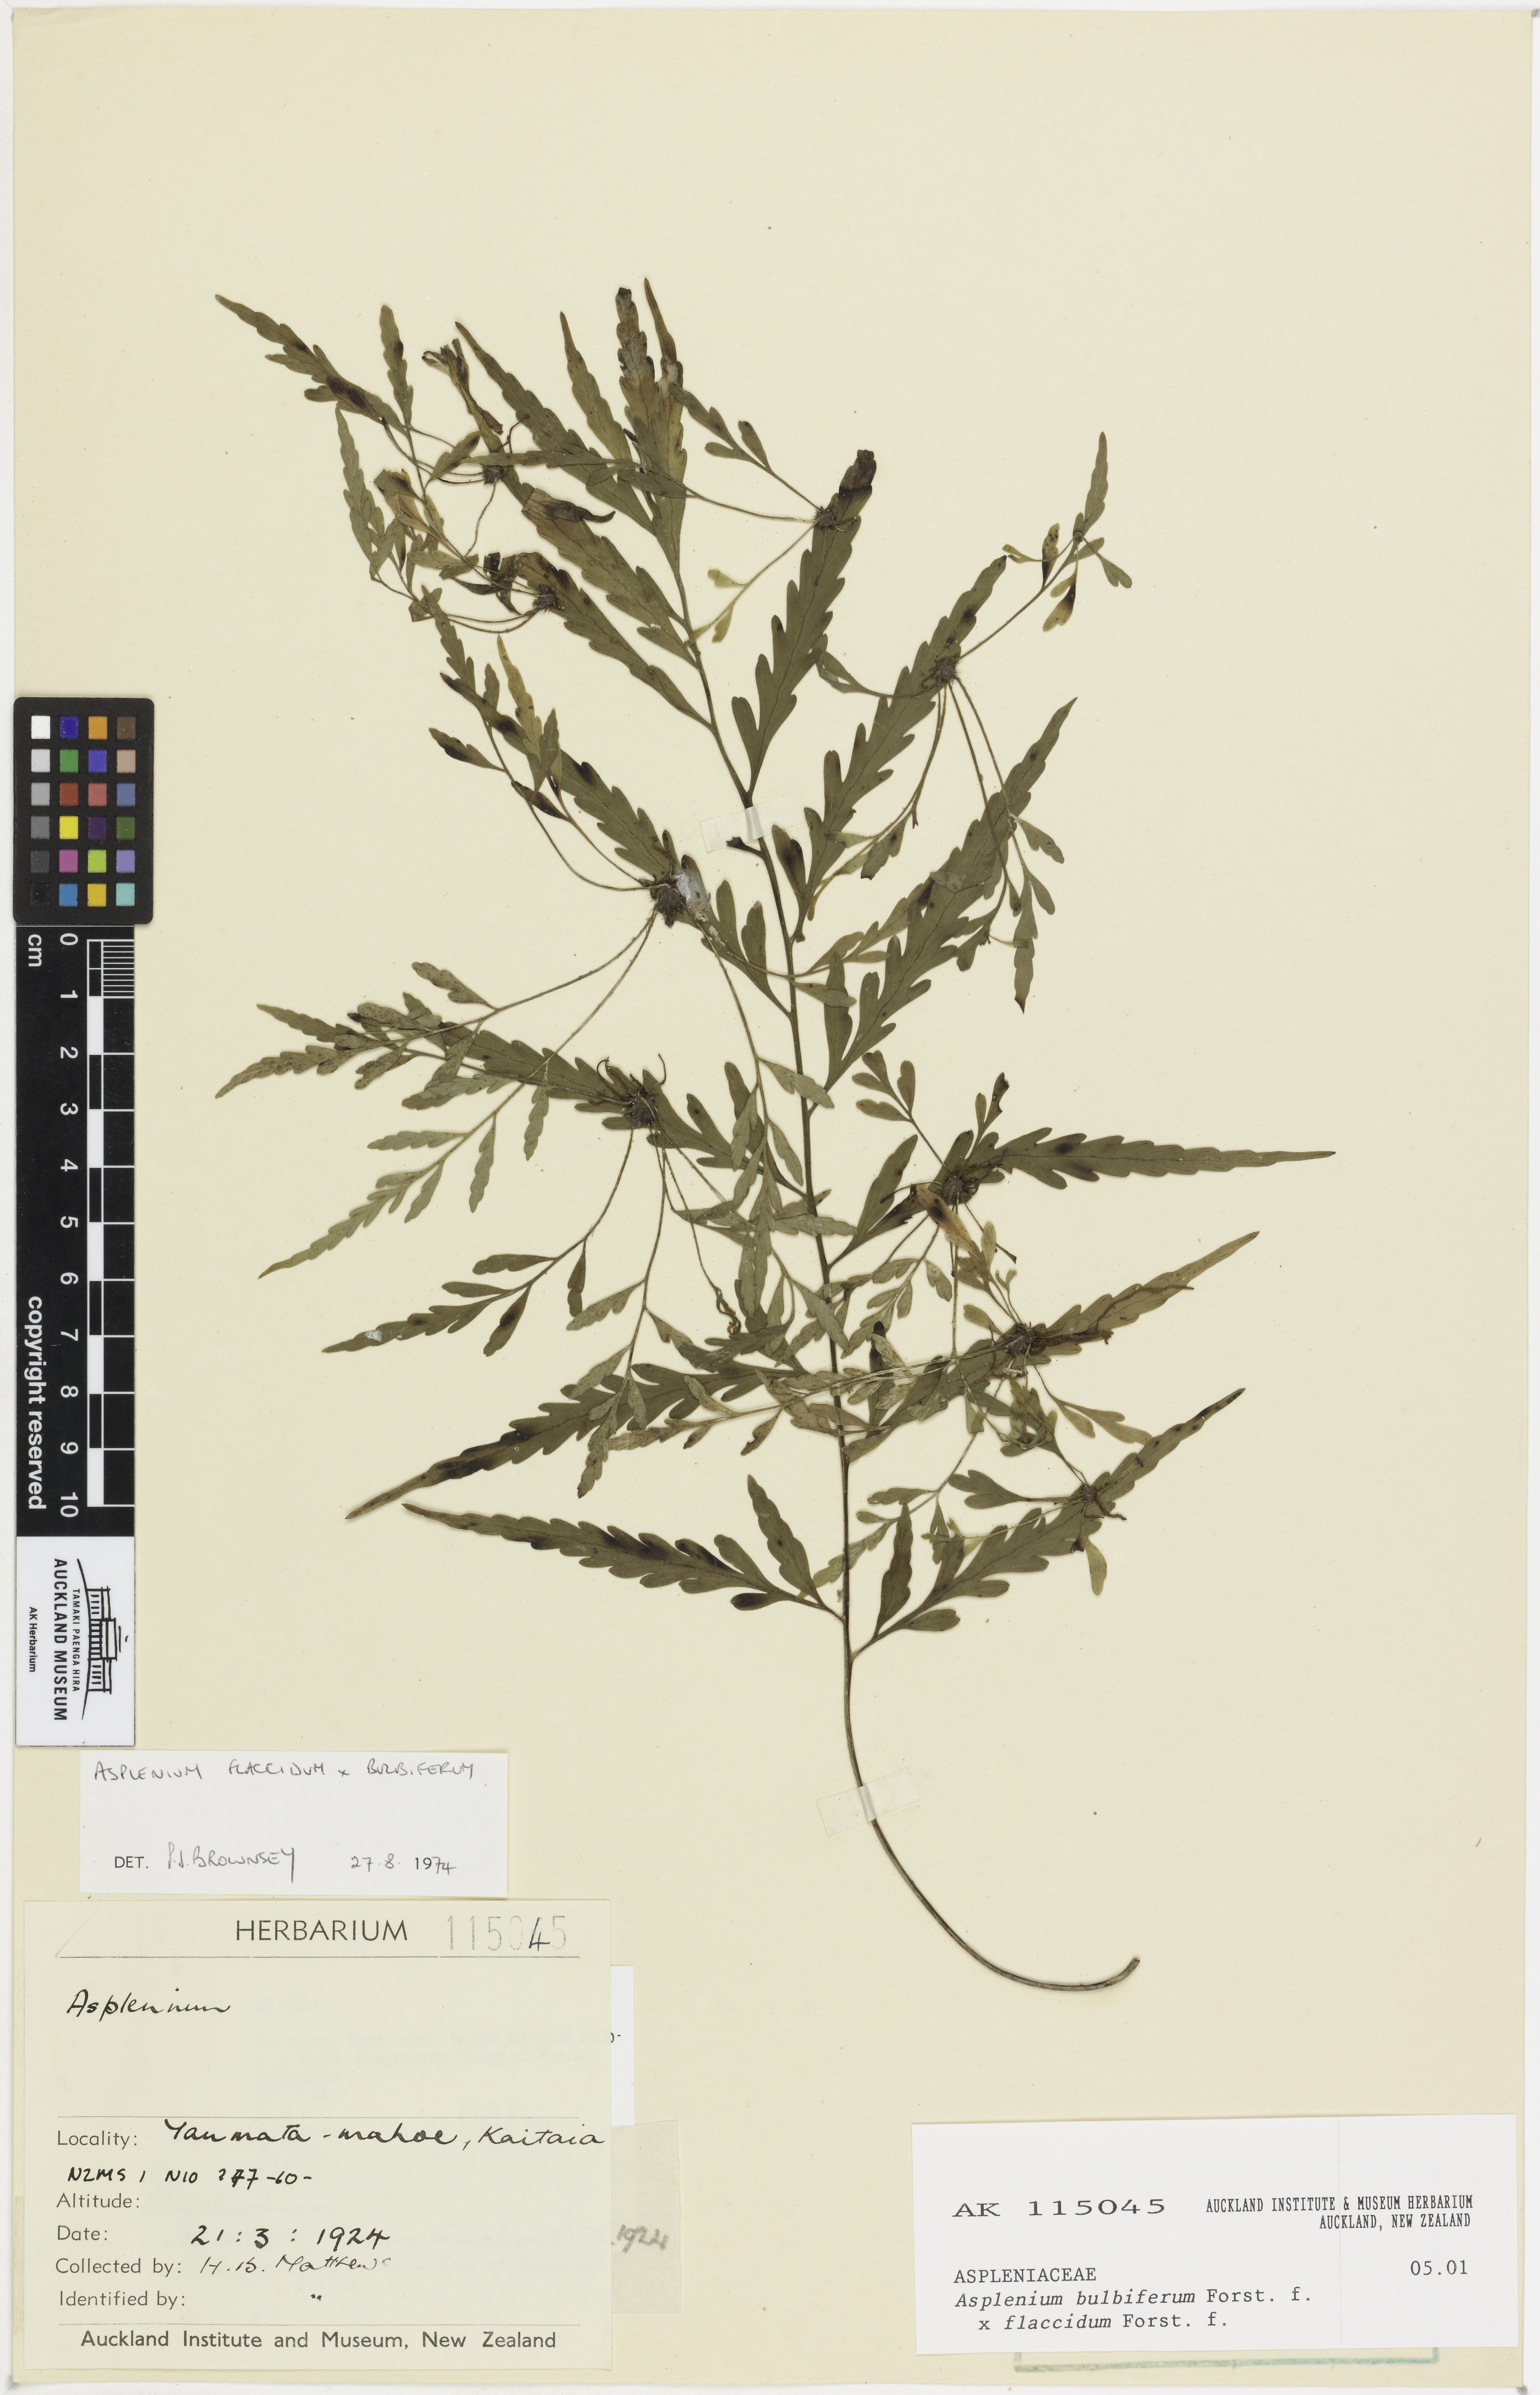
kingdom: Plantae
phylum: Tracheophyta
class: Polypodiopsida
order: Polypodiales
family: Aspleniaceae
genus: Asplenium
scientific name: Asplenium
